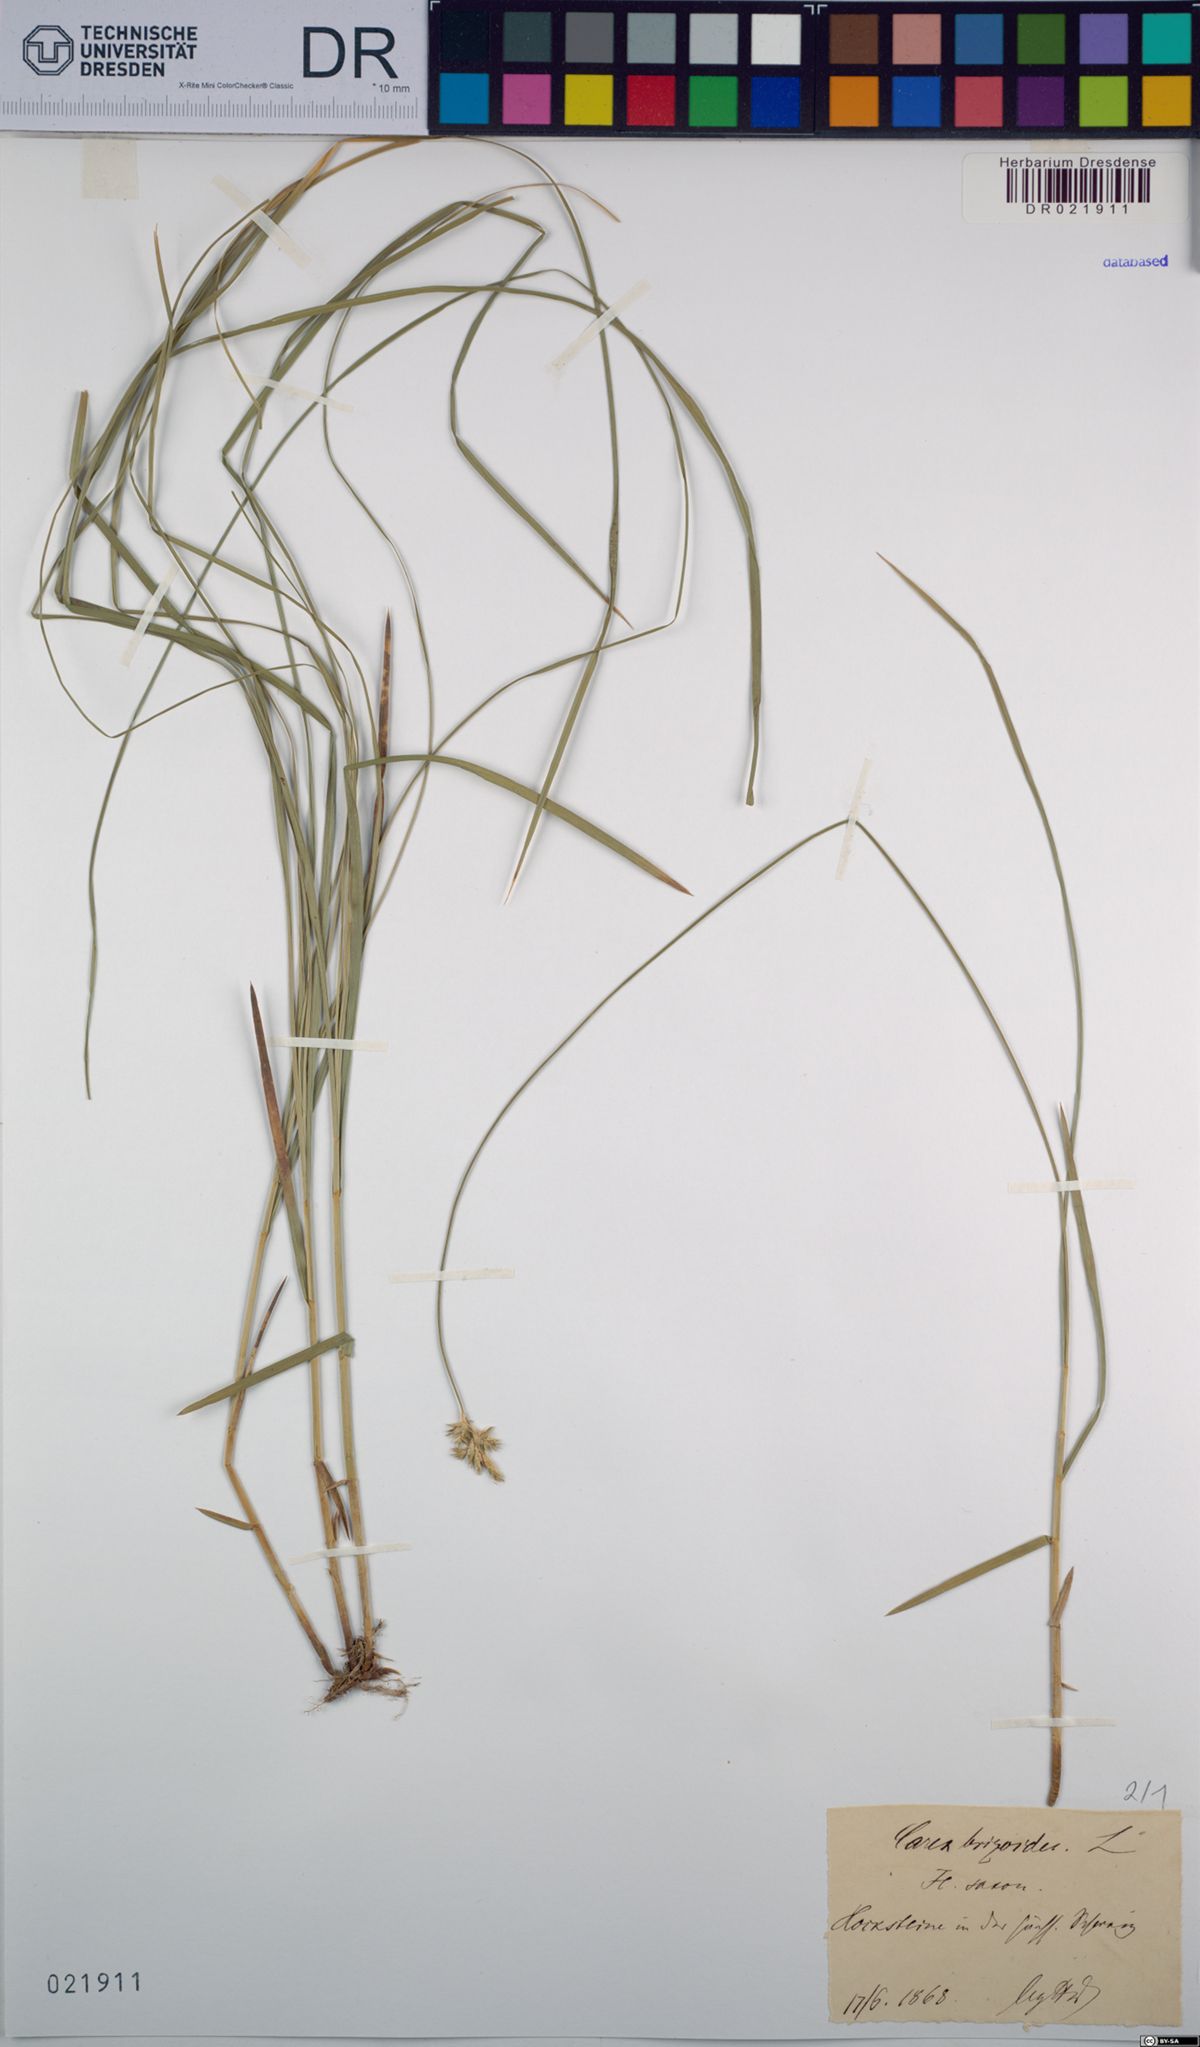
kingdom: Plantae
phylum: Tracheophyta
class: Liliopsida
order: Poales
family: Cyperaceae
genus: Carex
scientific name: Carex brizoides
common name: Quaking-grass sedge
